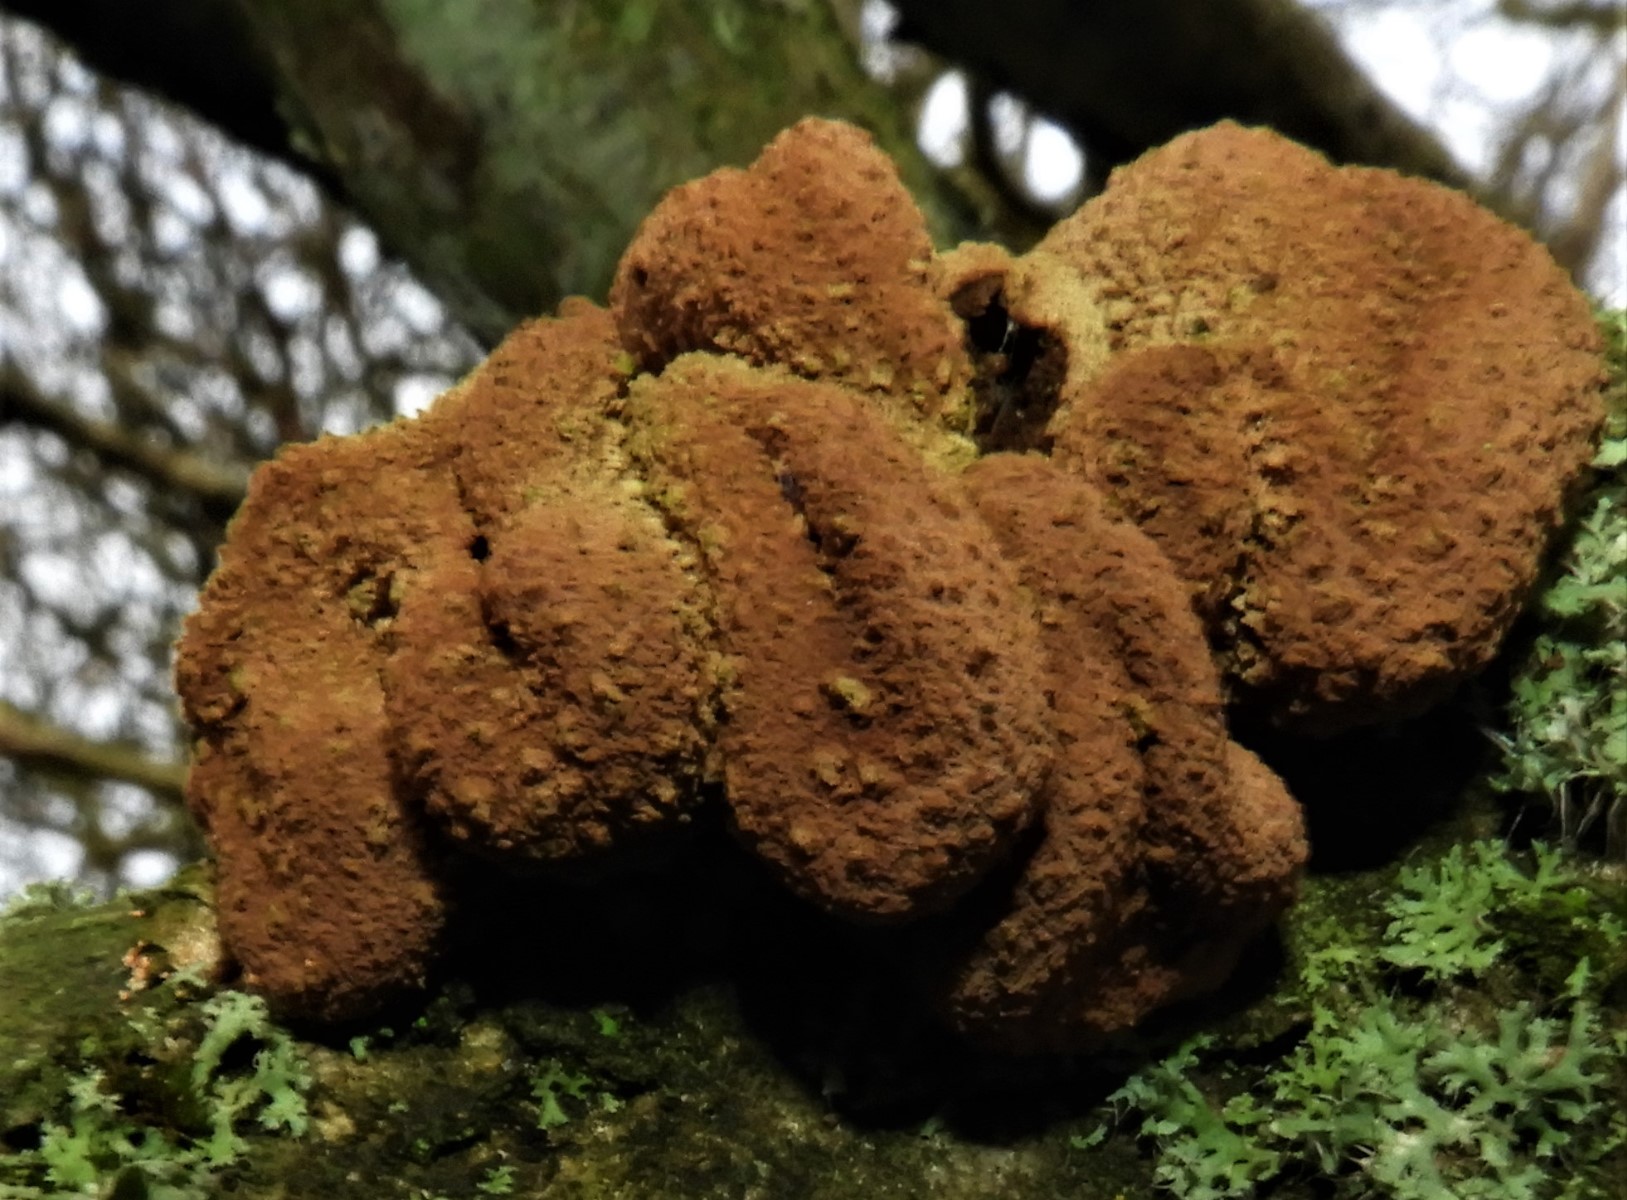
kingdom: Fungi
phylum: Ascomycota
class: Leotiomycetes
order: Helotiales
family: Cenangiaceae
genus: Encoelia
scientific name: Encoelia furfuracea
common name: hassel-læderskive
